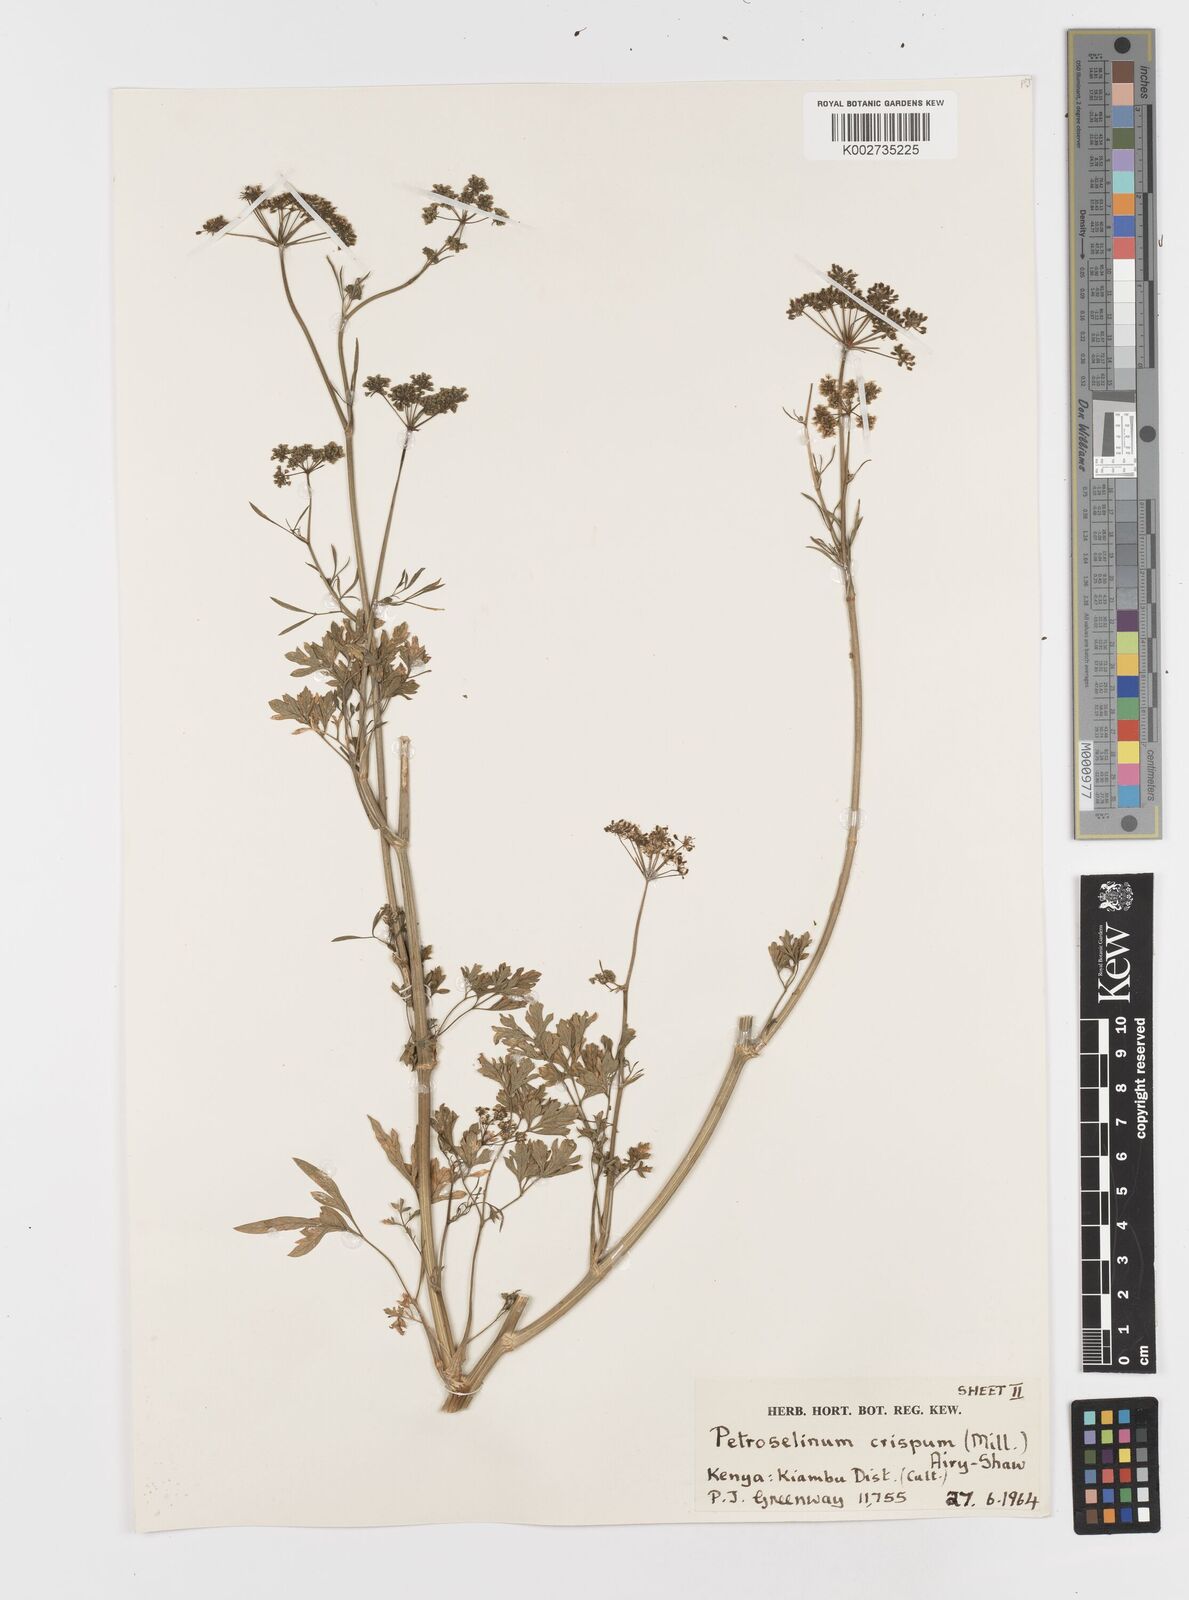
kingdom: Plantae
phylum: Tracheophyta
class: Magnoliopsida
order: Apiales
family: Apiaceae
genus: Petroselinum
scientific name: Petroselinum
